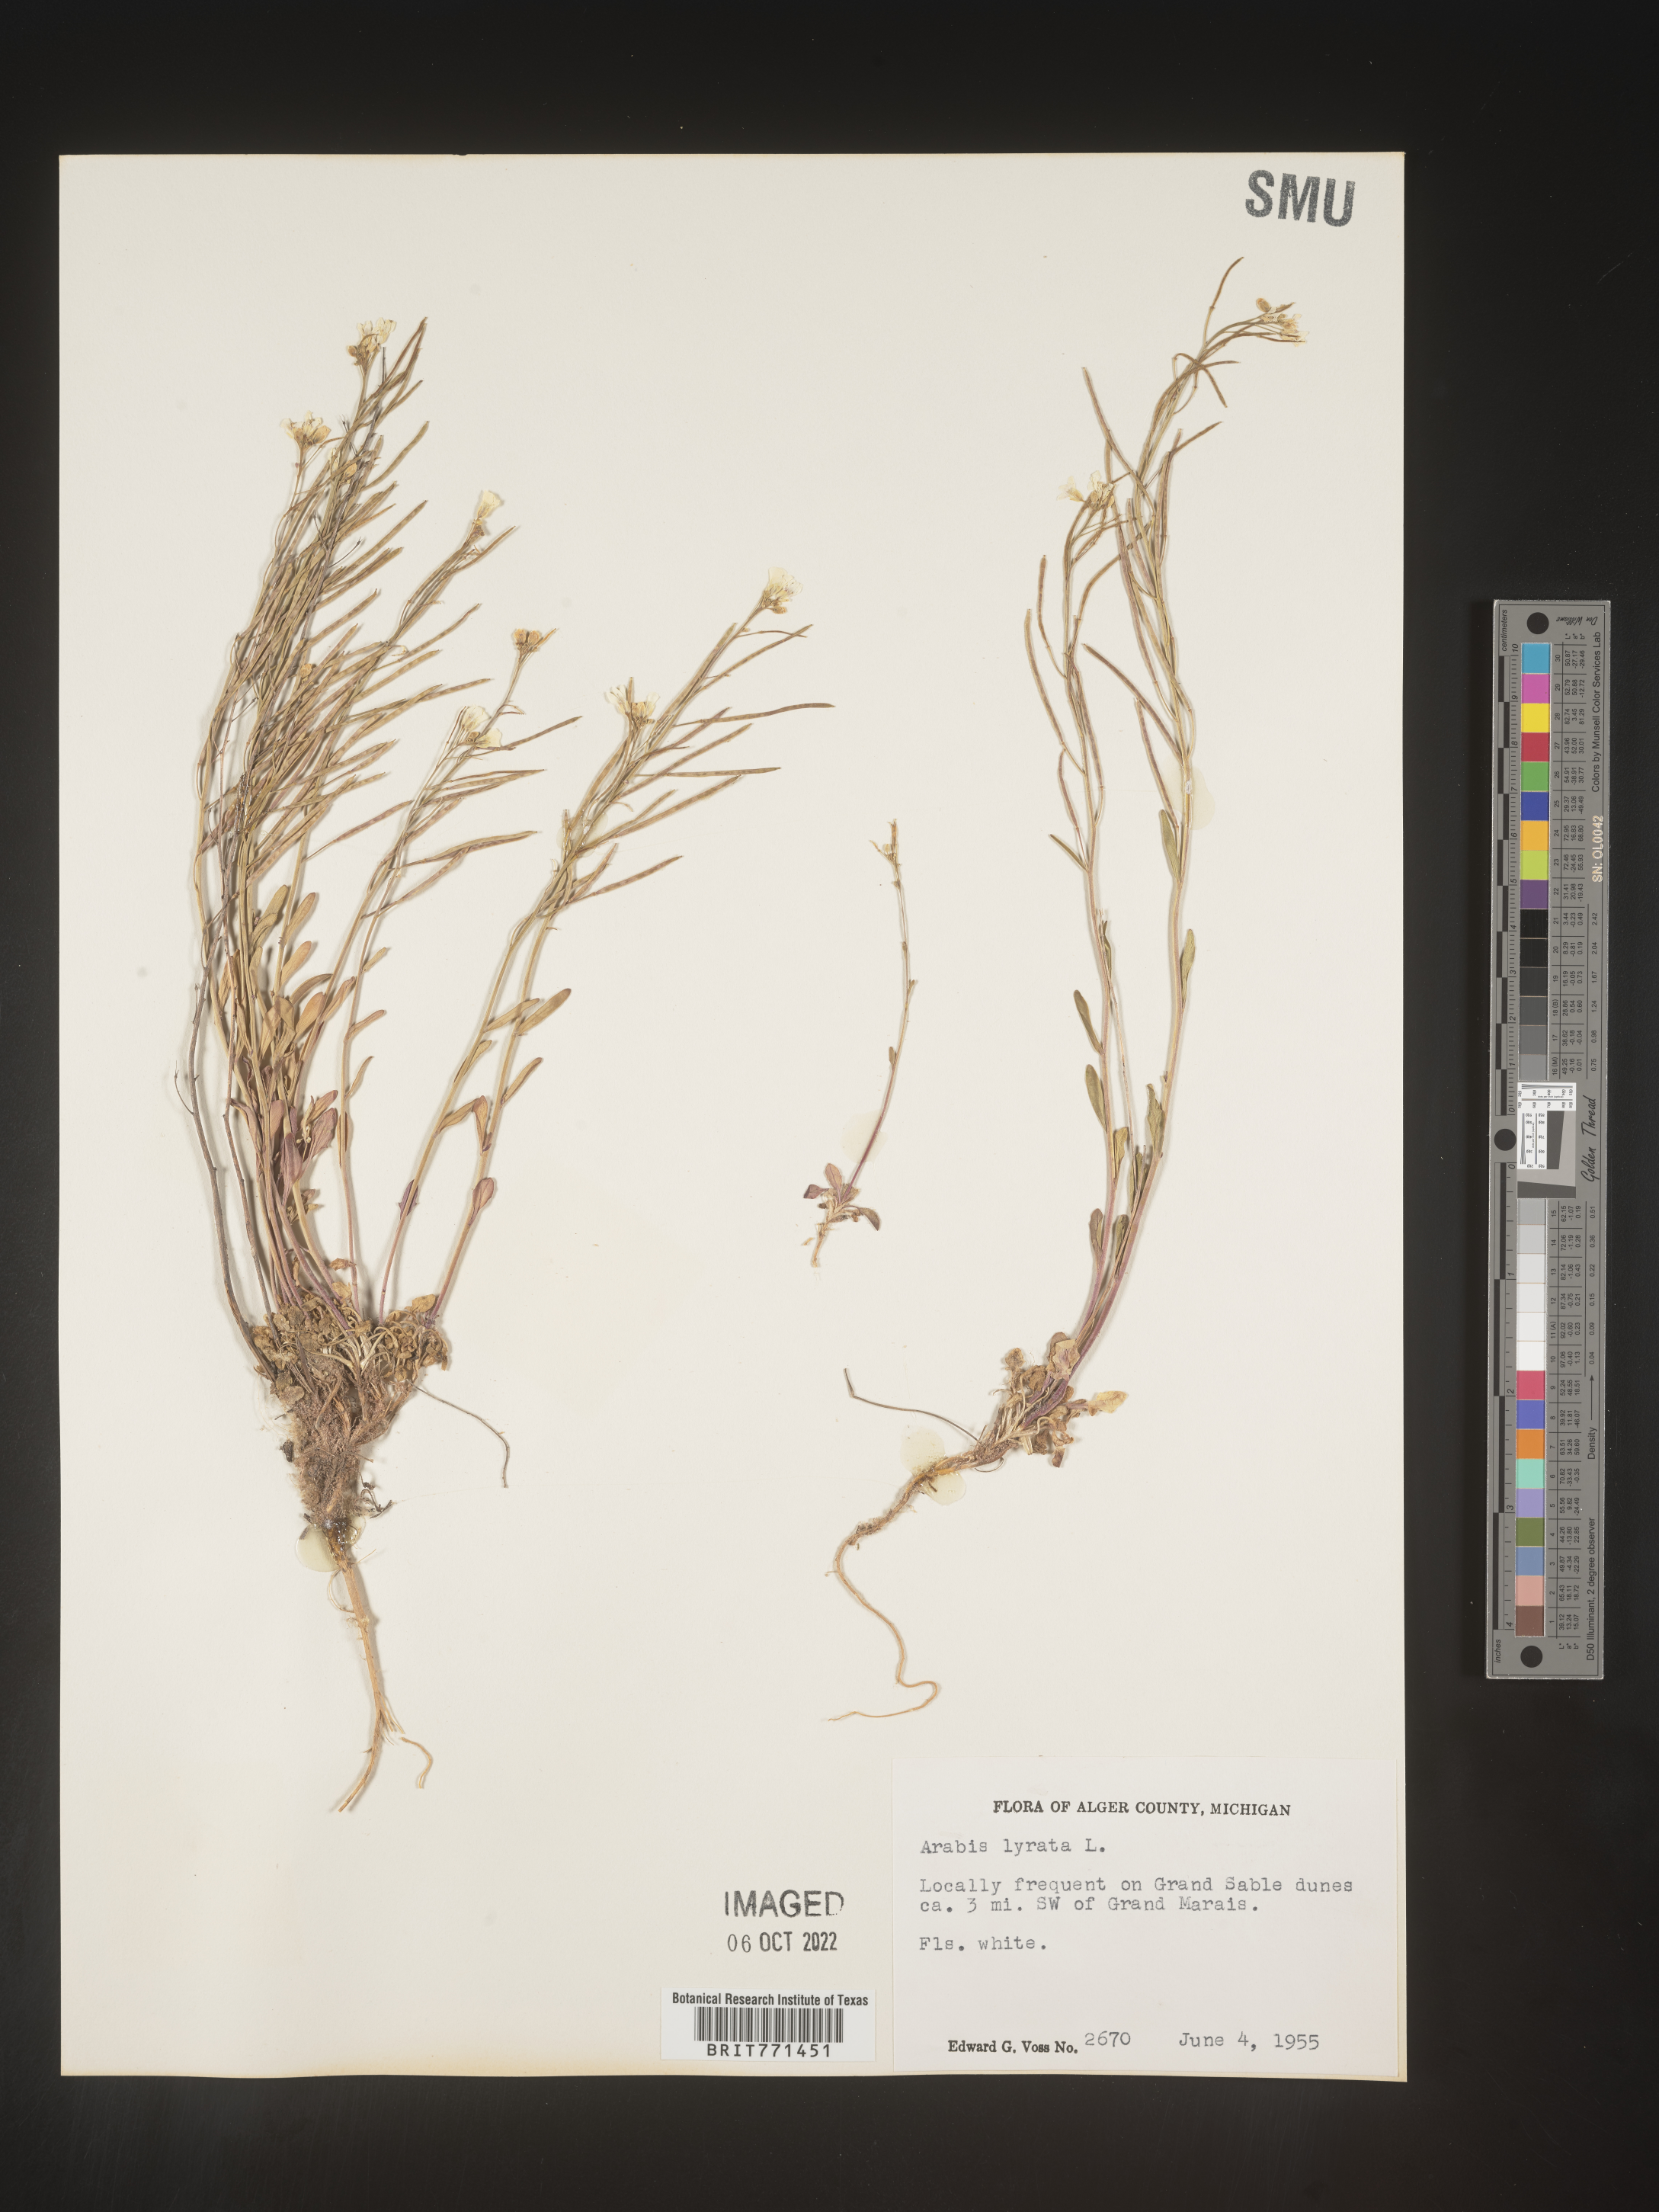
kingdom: Plantae
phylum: Tracheophyta
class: Magnoliopsida
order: Brassicales
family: Brassicaceae
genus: Arabidopsis
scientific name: Arabidopsis lyrata
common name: Lyrate rockcress
